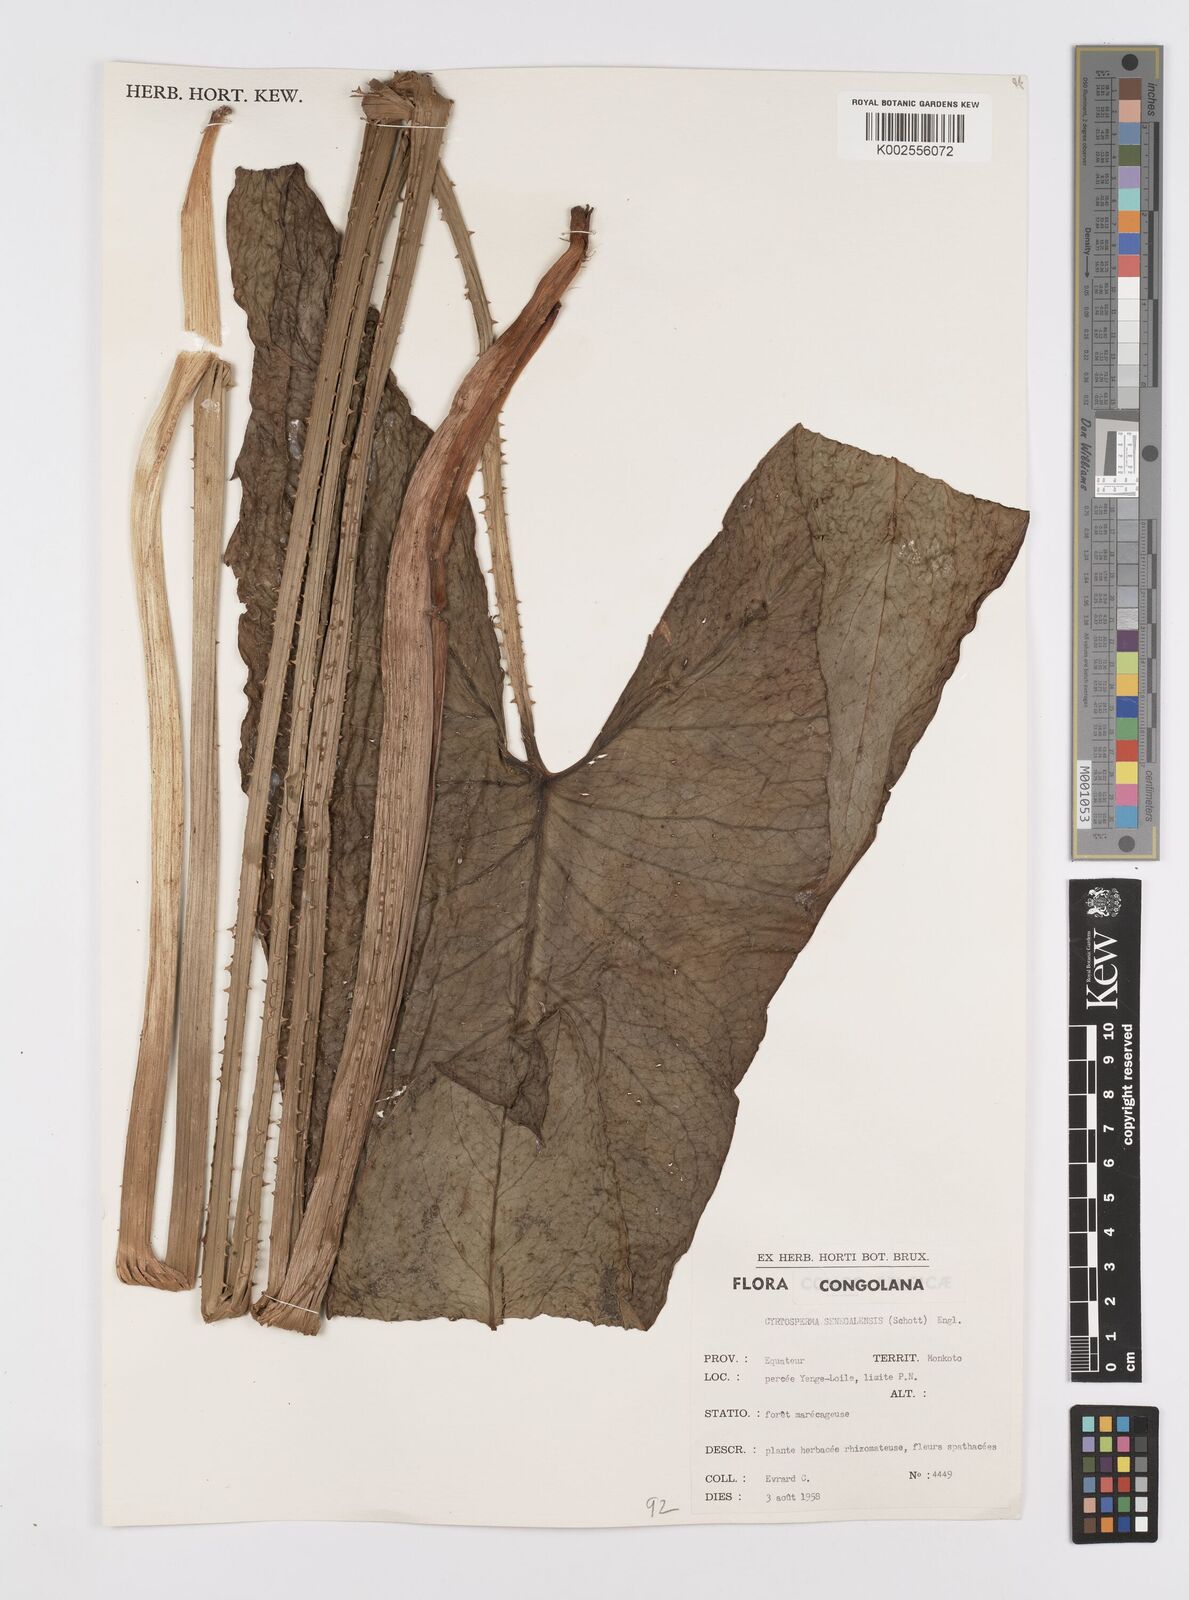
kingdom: Plantae
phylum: Tracheophyta
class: Liliopsida
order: Alismatales
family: Araceae
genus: Lasimorpha
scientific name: Lasimorpha
